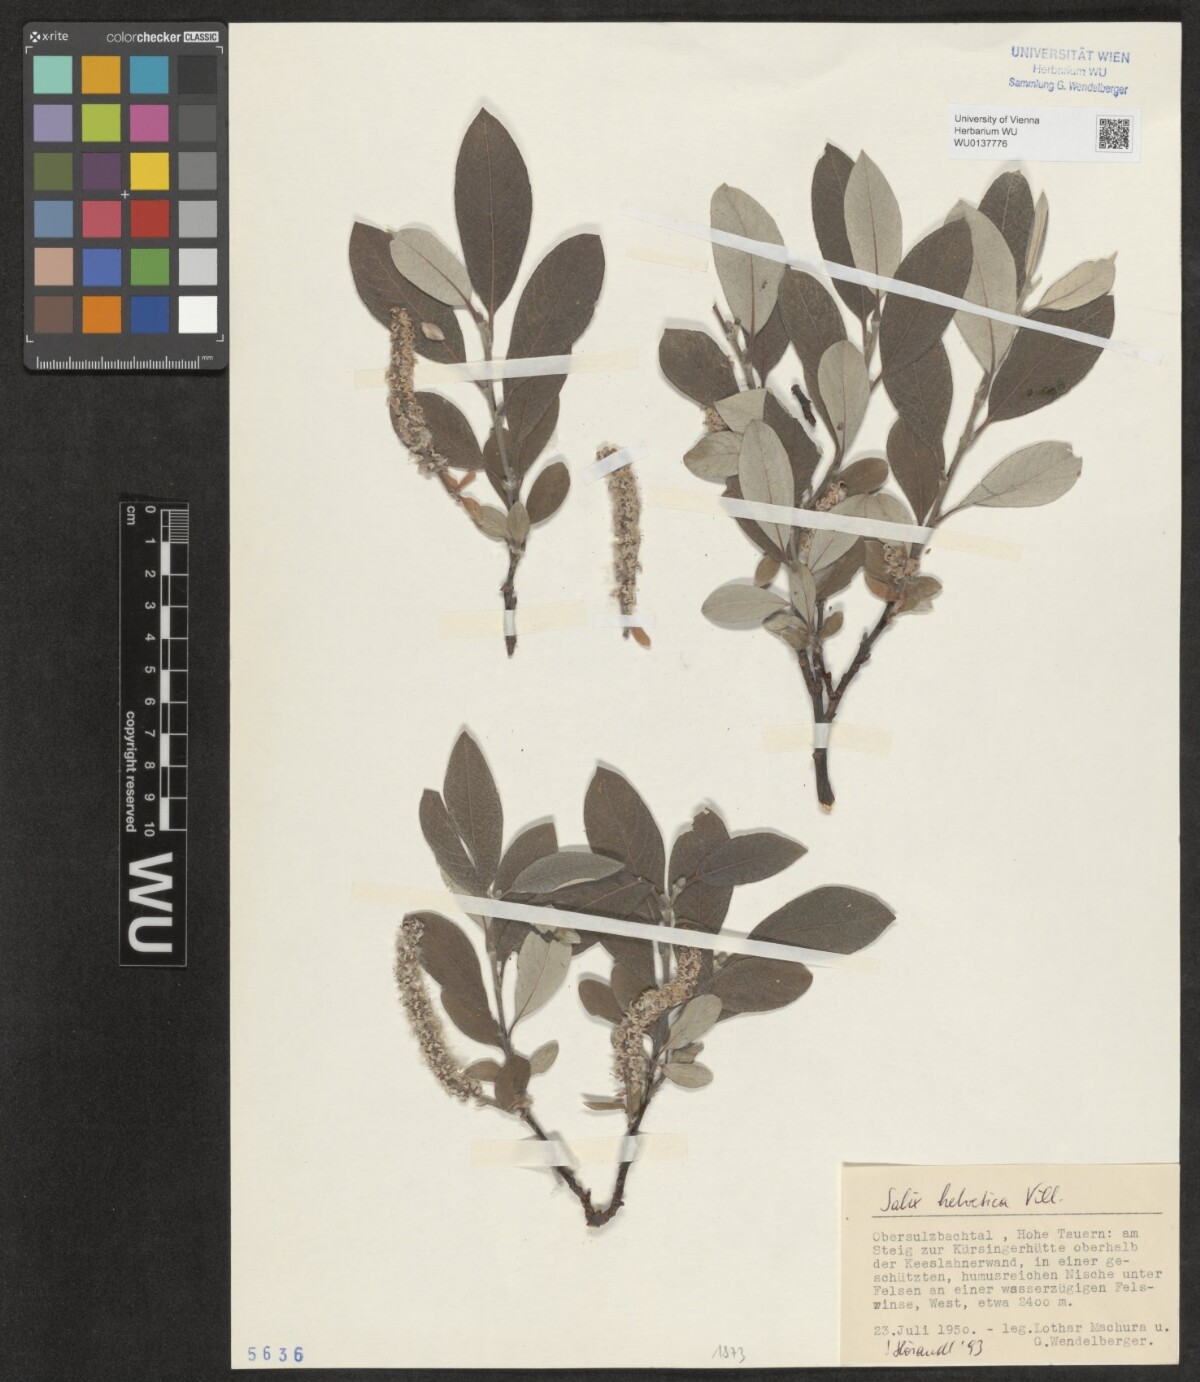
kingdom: Plantae
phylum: Tracheophyta
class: Magnoliopsida
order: Malpighiales
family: Salicaceae
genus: Salix
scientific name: Salix helvetica
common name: Swiss willow
